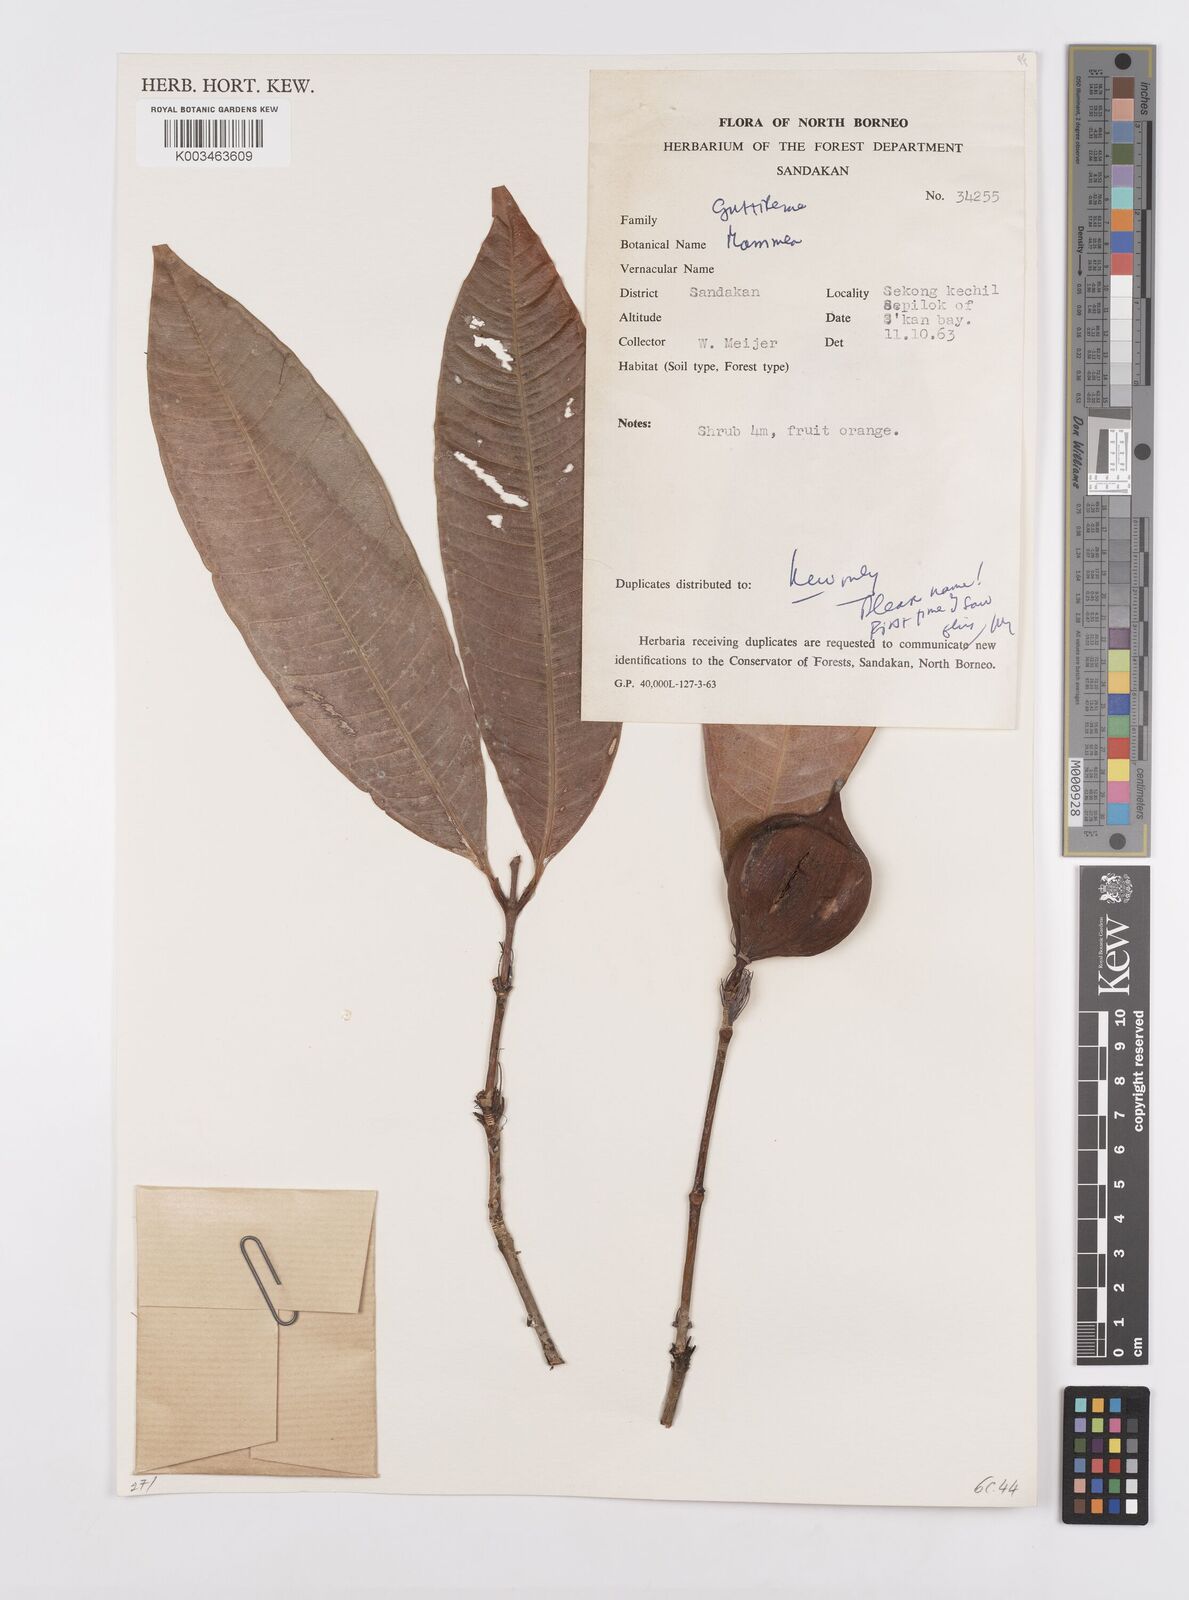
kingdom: Plantae
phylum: Tracheophyta
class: Magnoliopsida
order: Malpighiales
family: Calophyllaceae
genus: Mammea
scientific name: Mammea calciphila
